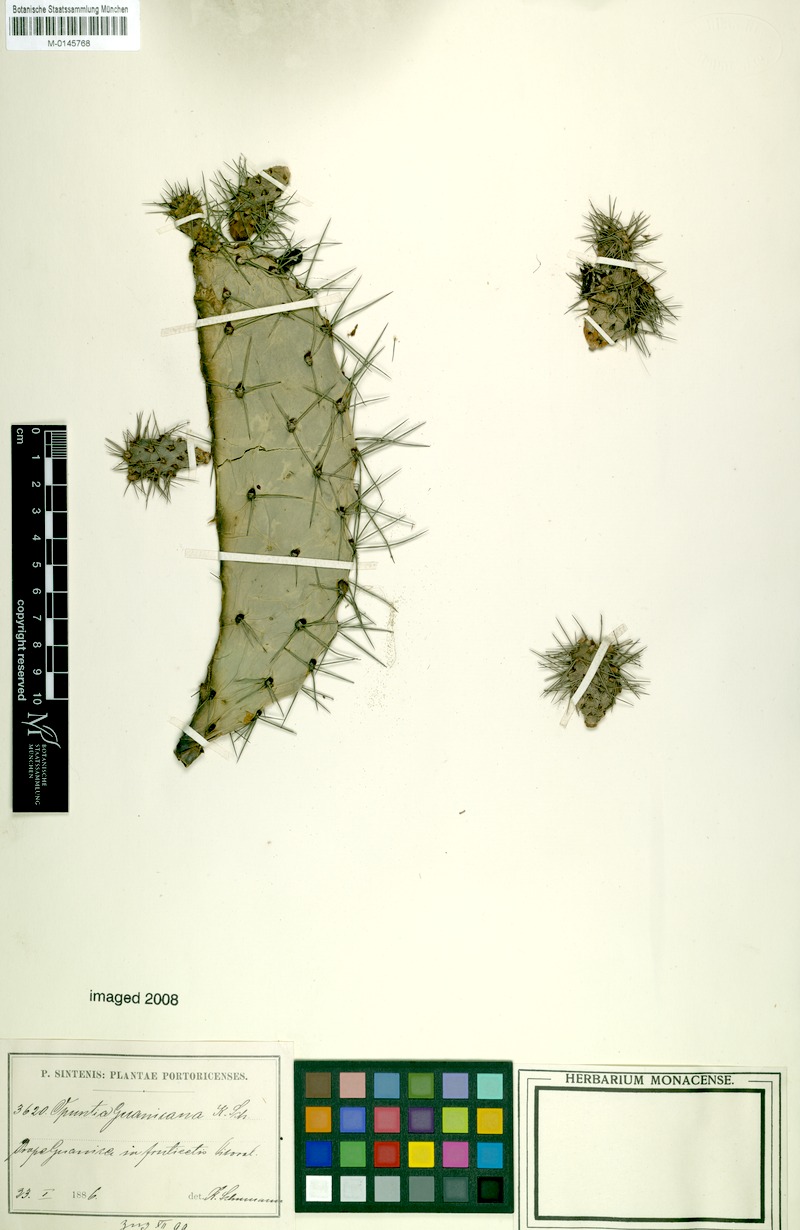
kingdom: Plantae
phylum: Tracheophyta
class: Magnoliopsida
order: Caryophyllales
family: Cactaceae
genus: Consolea
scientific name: Consolea rubescens
